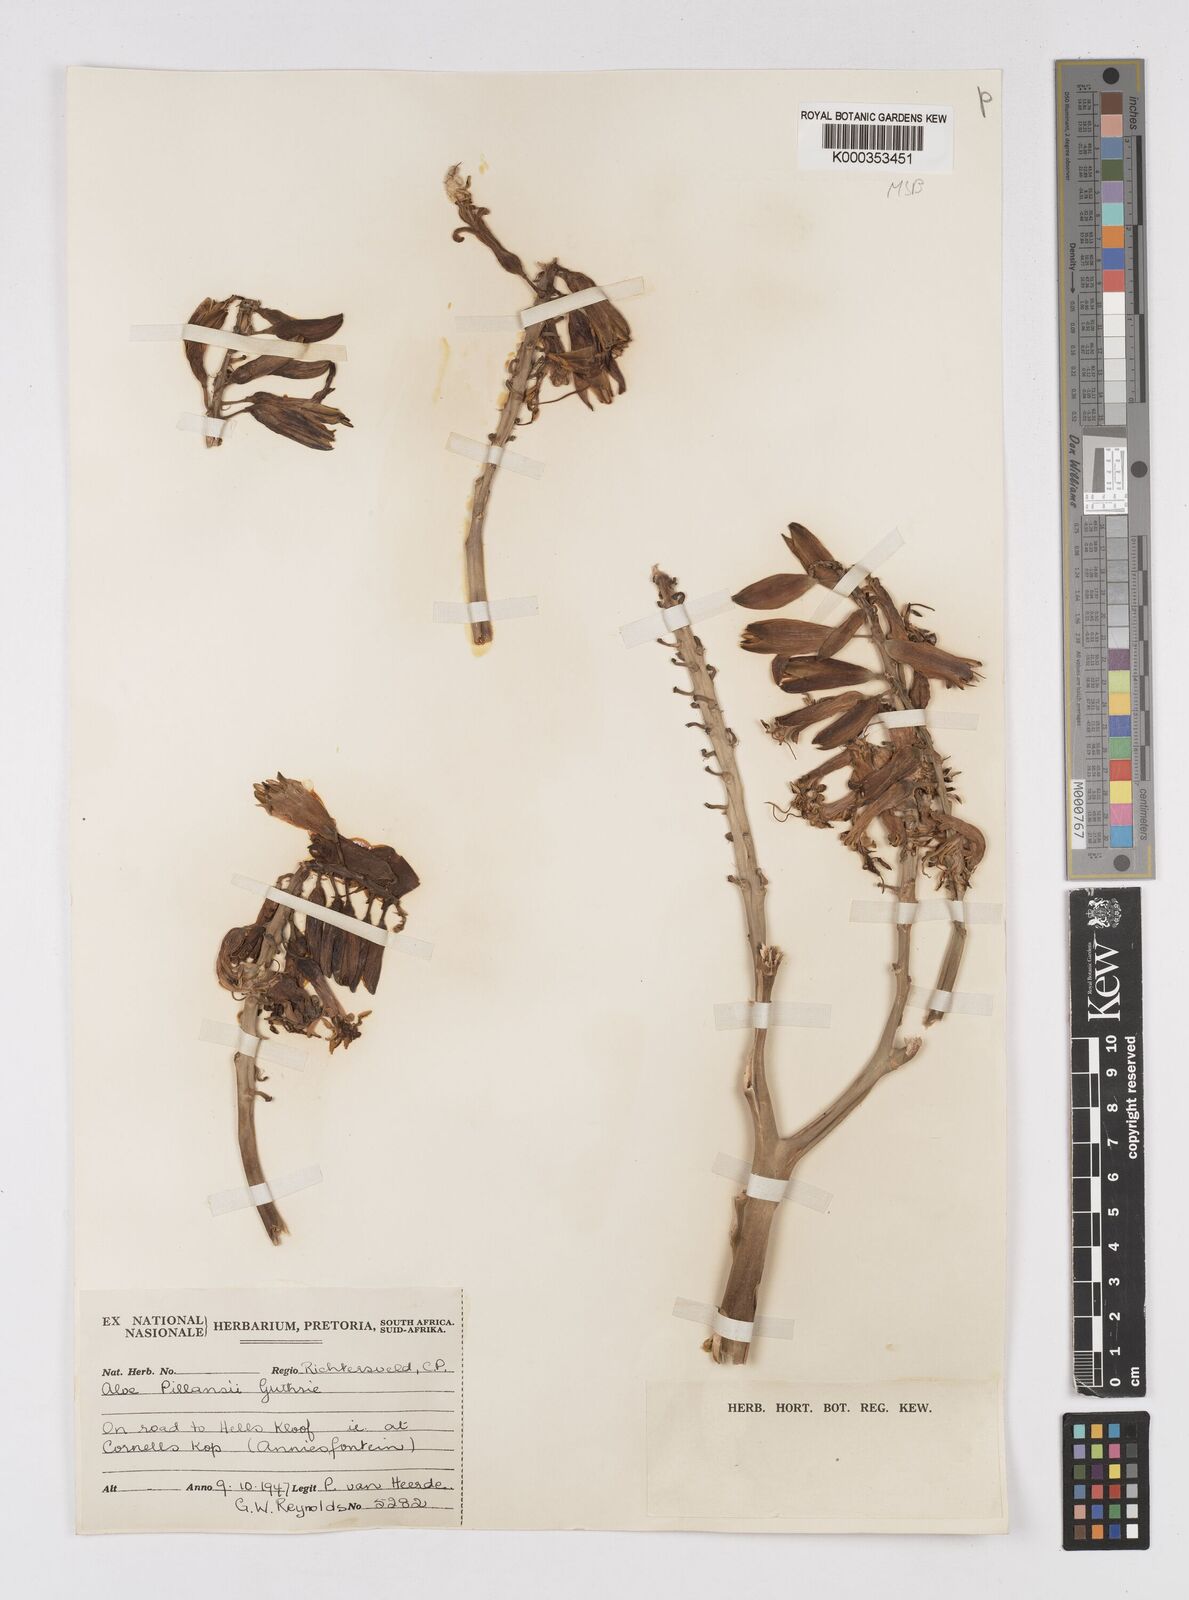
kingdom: Plantae
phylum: Tracheophyta
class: Liliopsida
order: Asparagales
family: Asphodelaceae
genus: Aloidendron
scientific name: Aloidendron pillansii
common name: Bastard quiver tree
